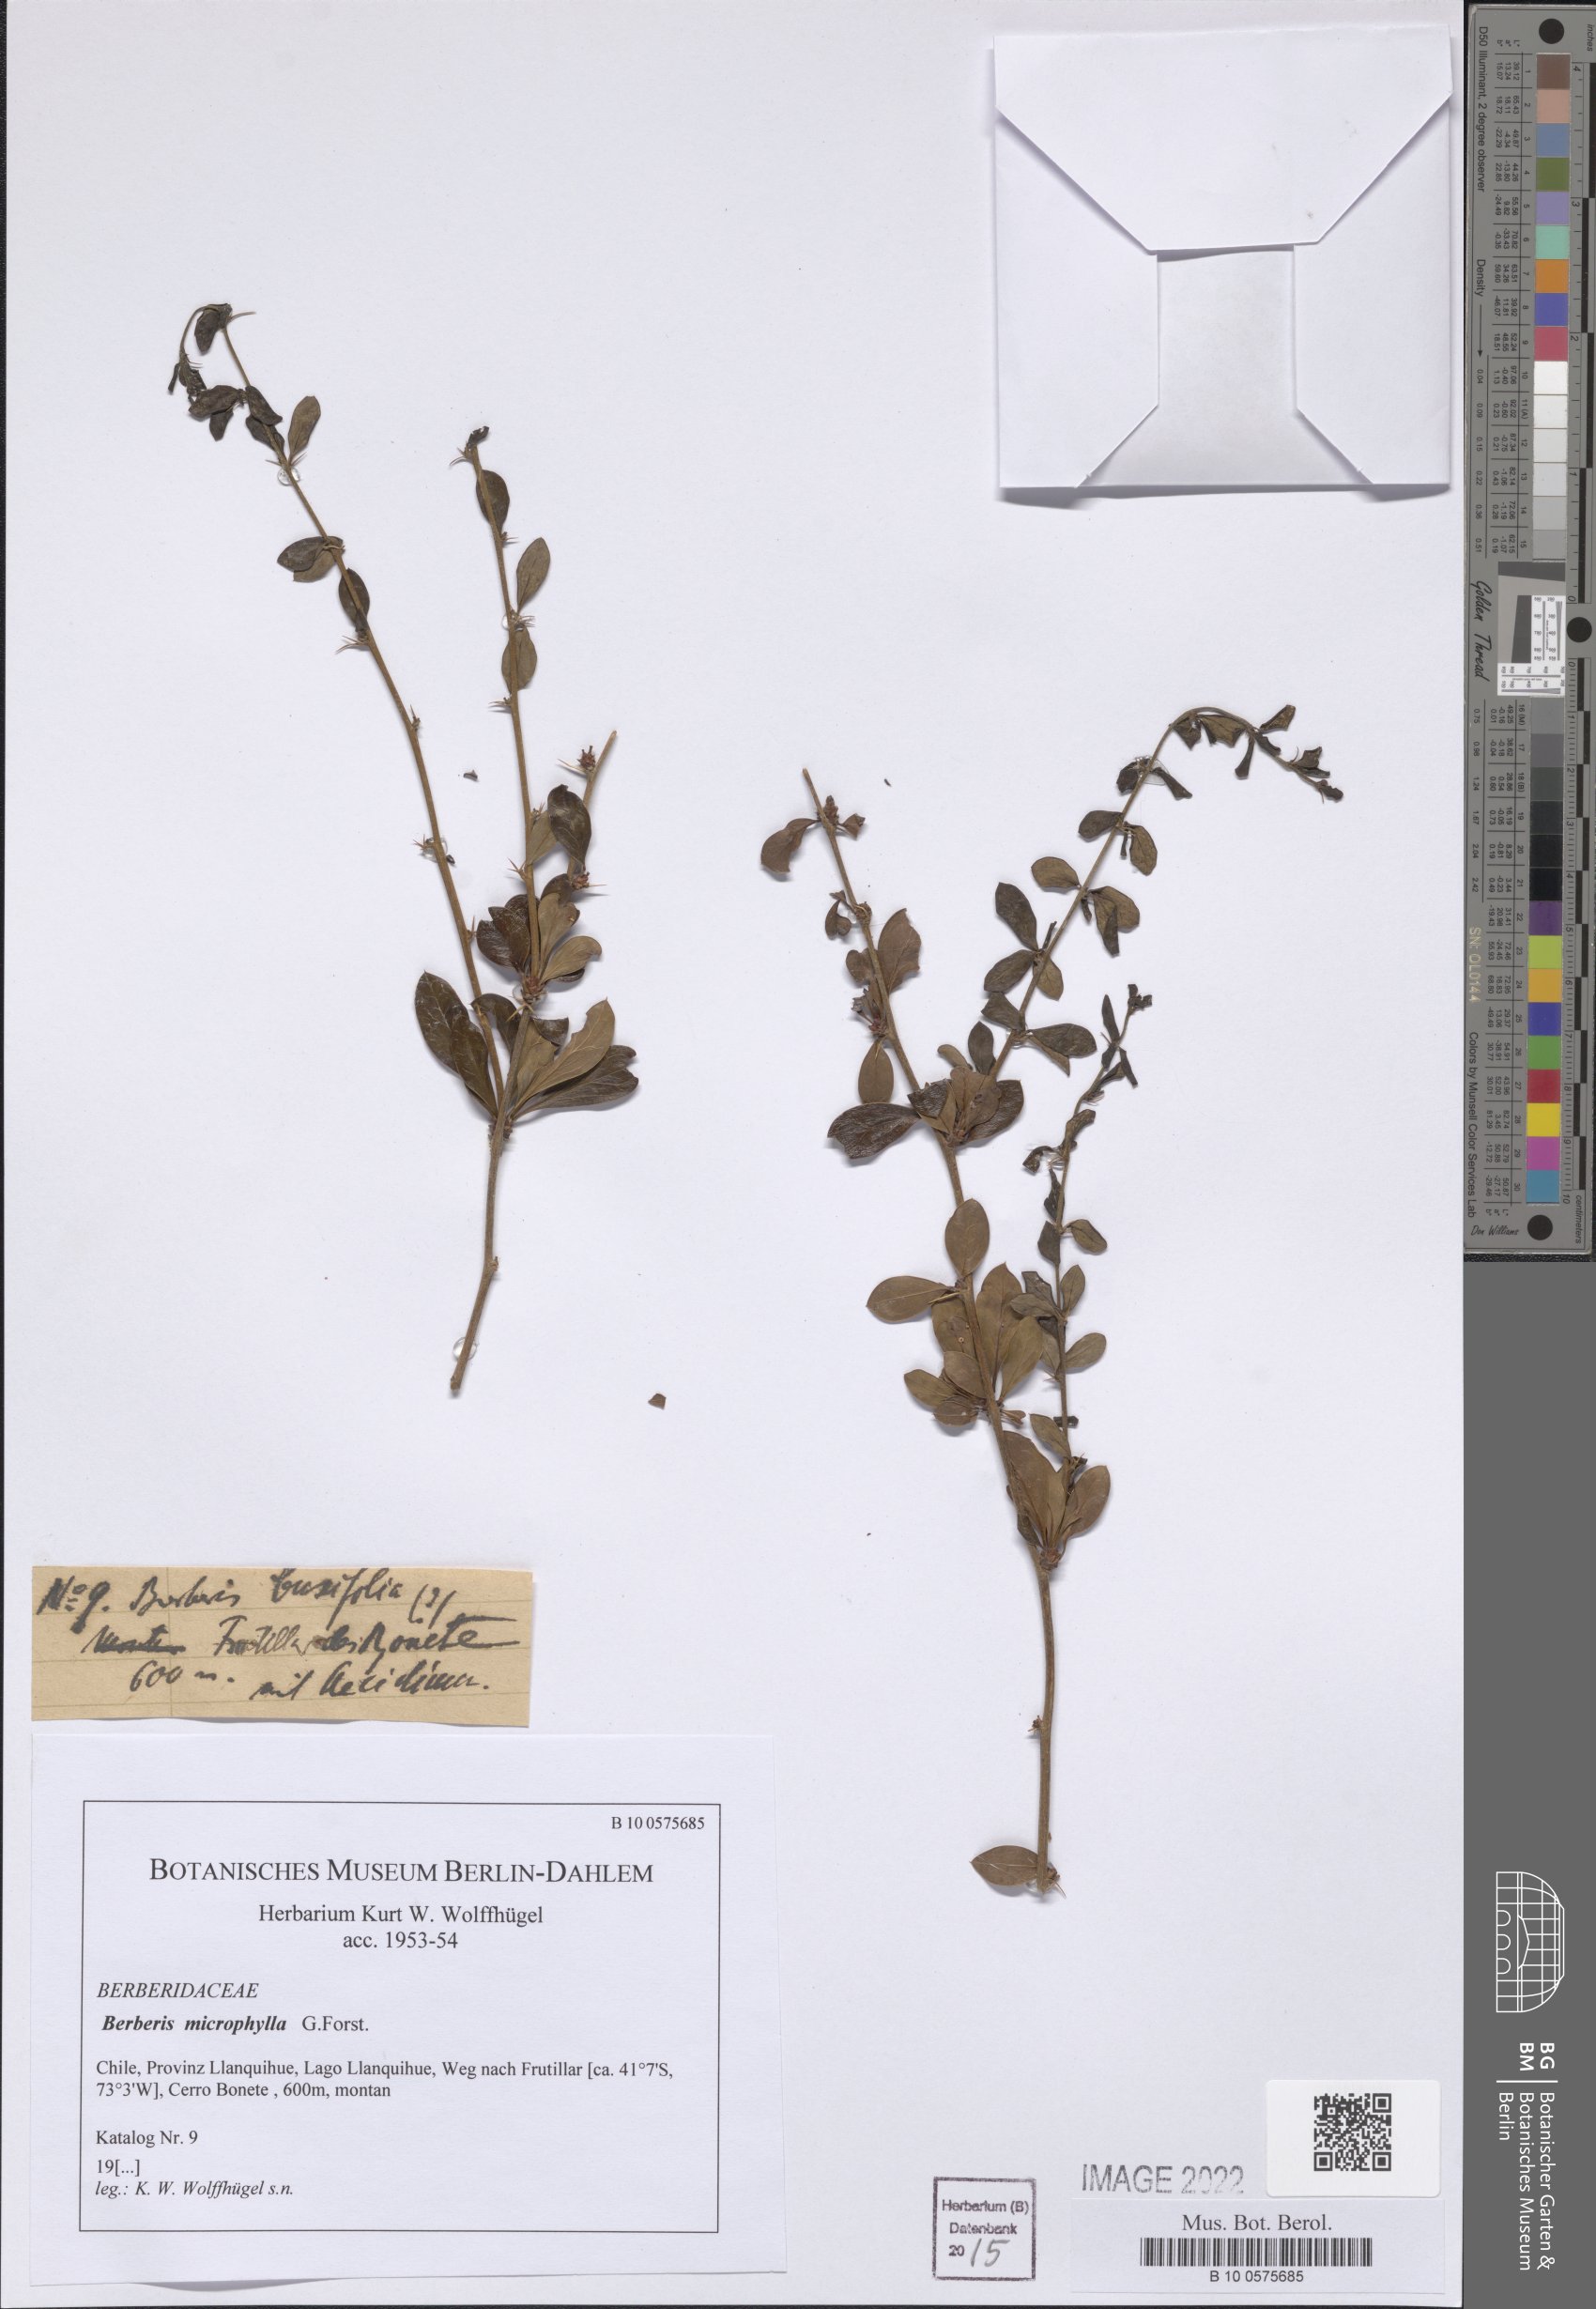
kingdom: Plantae
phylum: Tracheophyta
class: Magnoliopsida
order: Ranunculales
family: Berberidaceae
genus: Berberis
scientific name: Berberis microphylla
